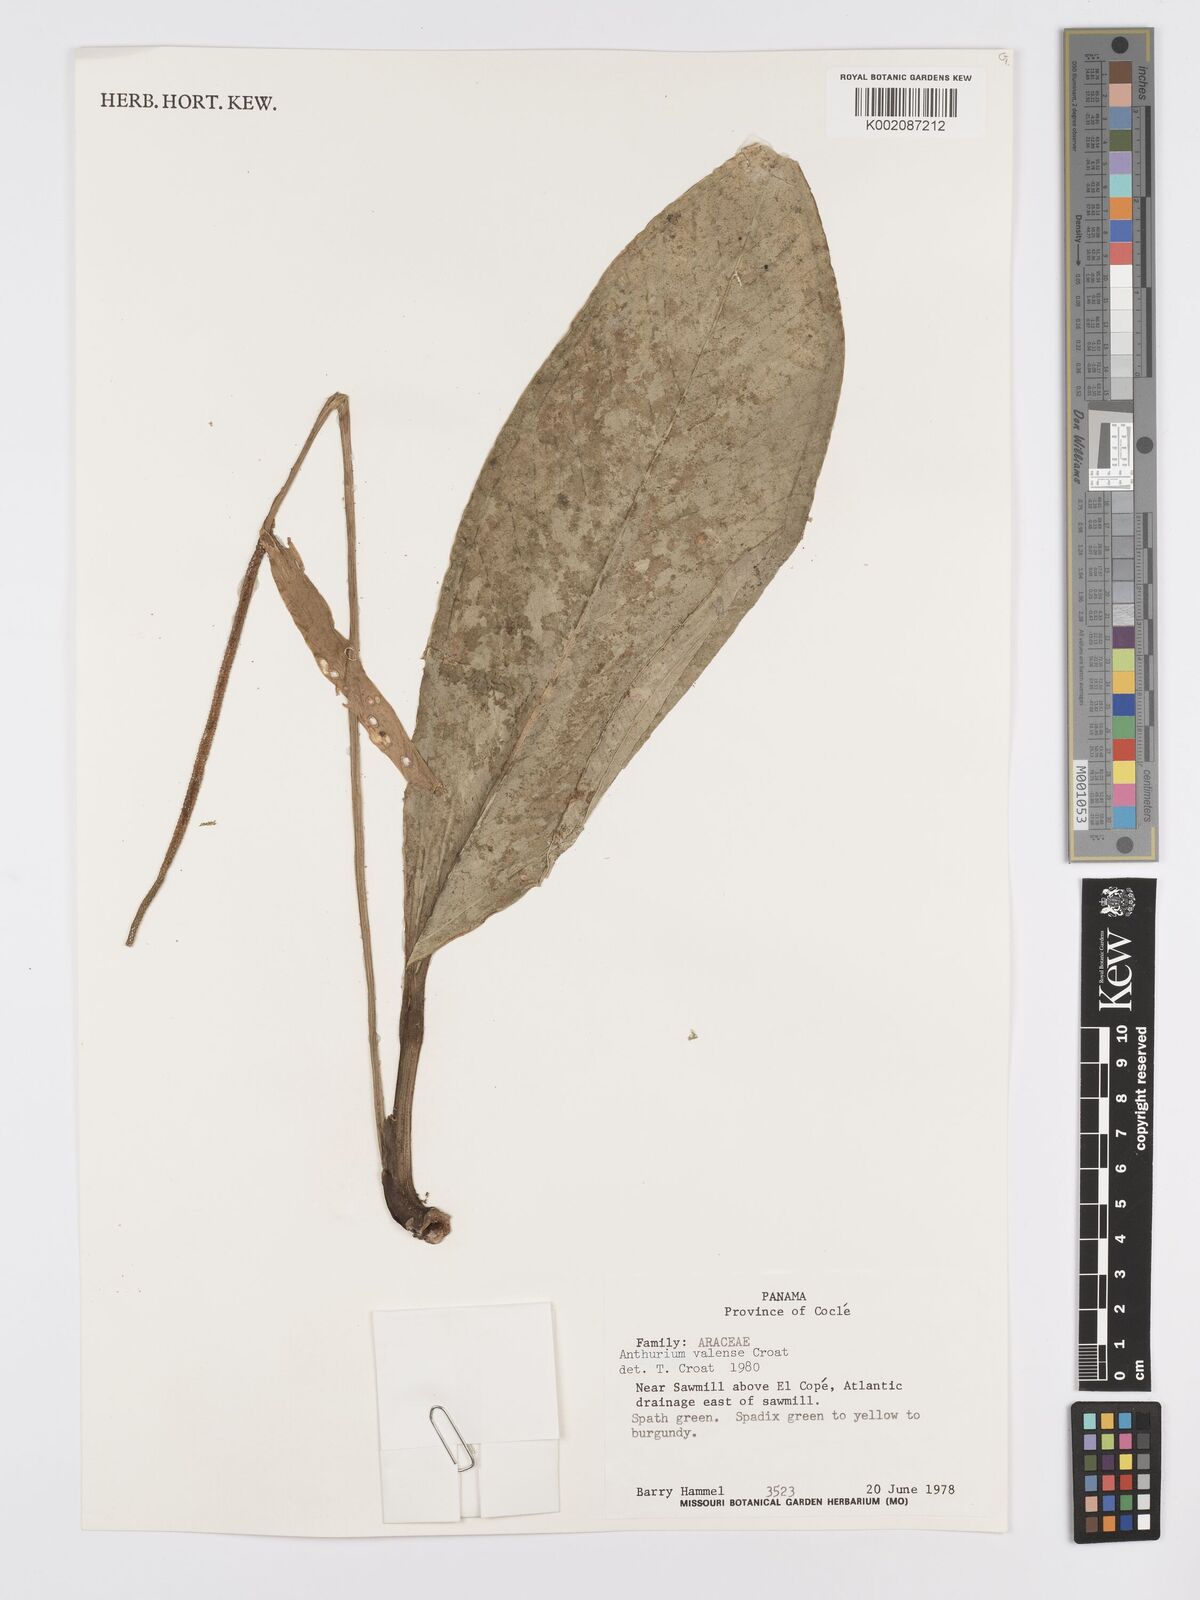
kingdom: Plantae
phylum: Tracheophyta
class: Liliopsida
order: Alismatales
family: Araceae
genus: Anthurium
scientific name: Anthurium vallense
